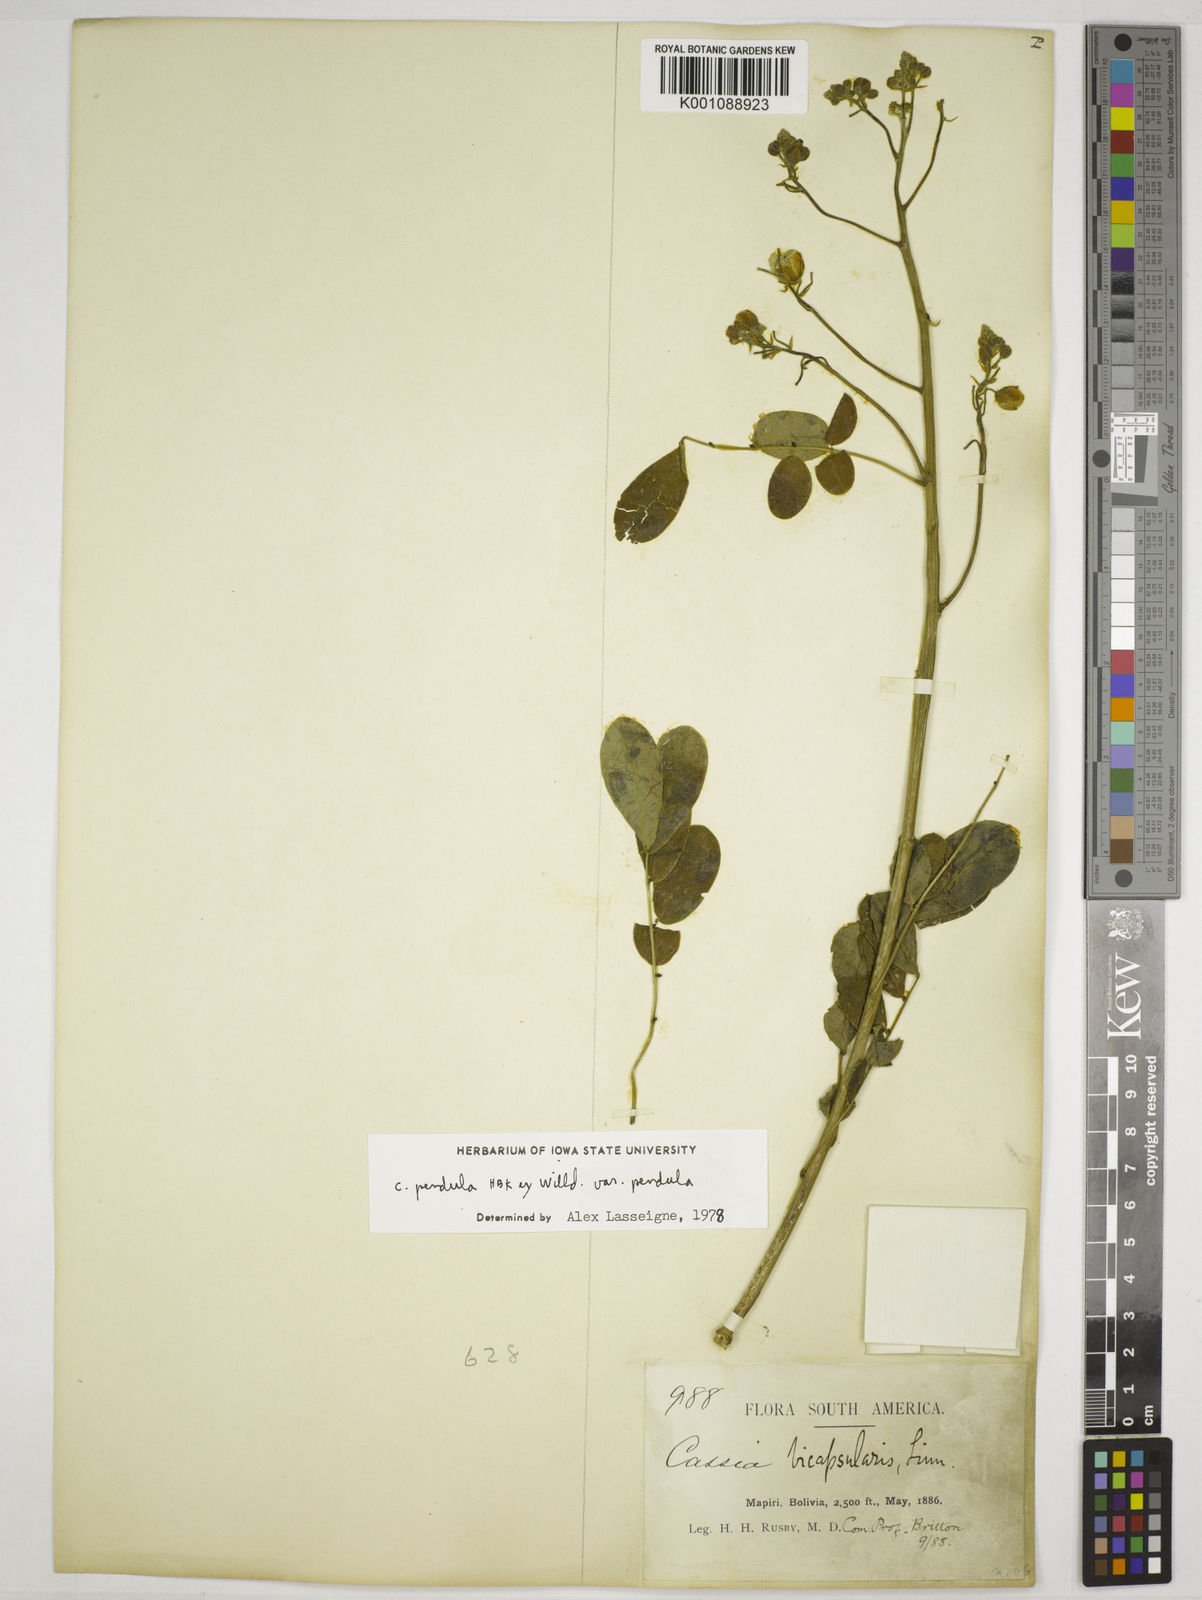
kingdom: Plantae
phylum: Tracheophyta
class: Magnoliopsida
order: Fabales
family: Fabaceae
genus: Senna
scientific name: Senna pendula
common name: Easter cassia
